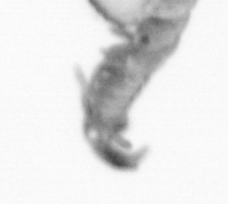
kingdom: Animalia
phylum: Annelida
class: Polychaeta
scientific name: Polychaeta
